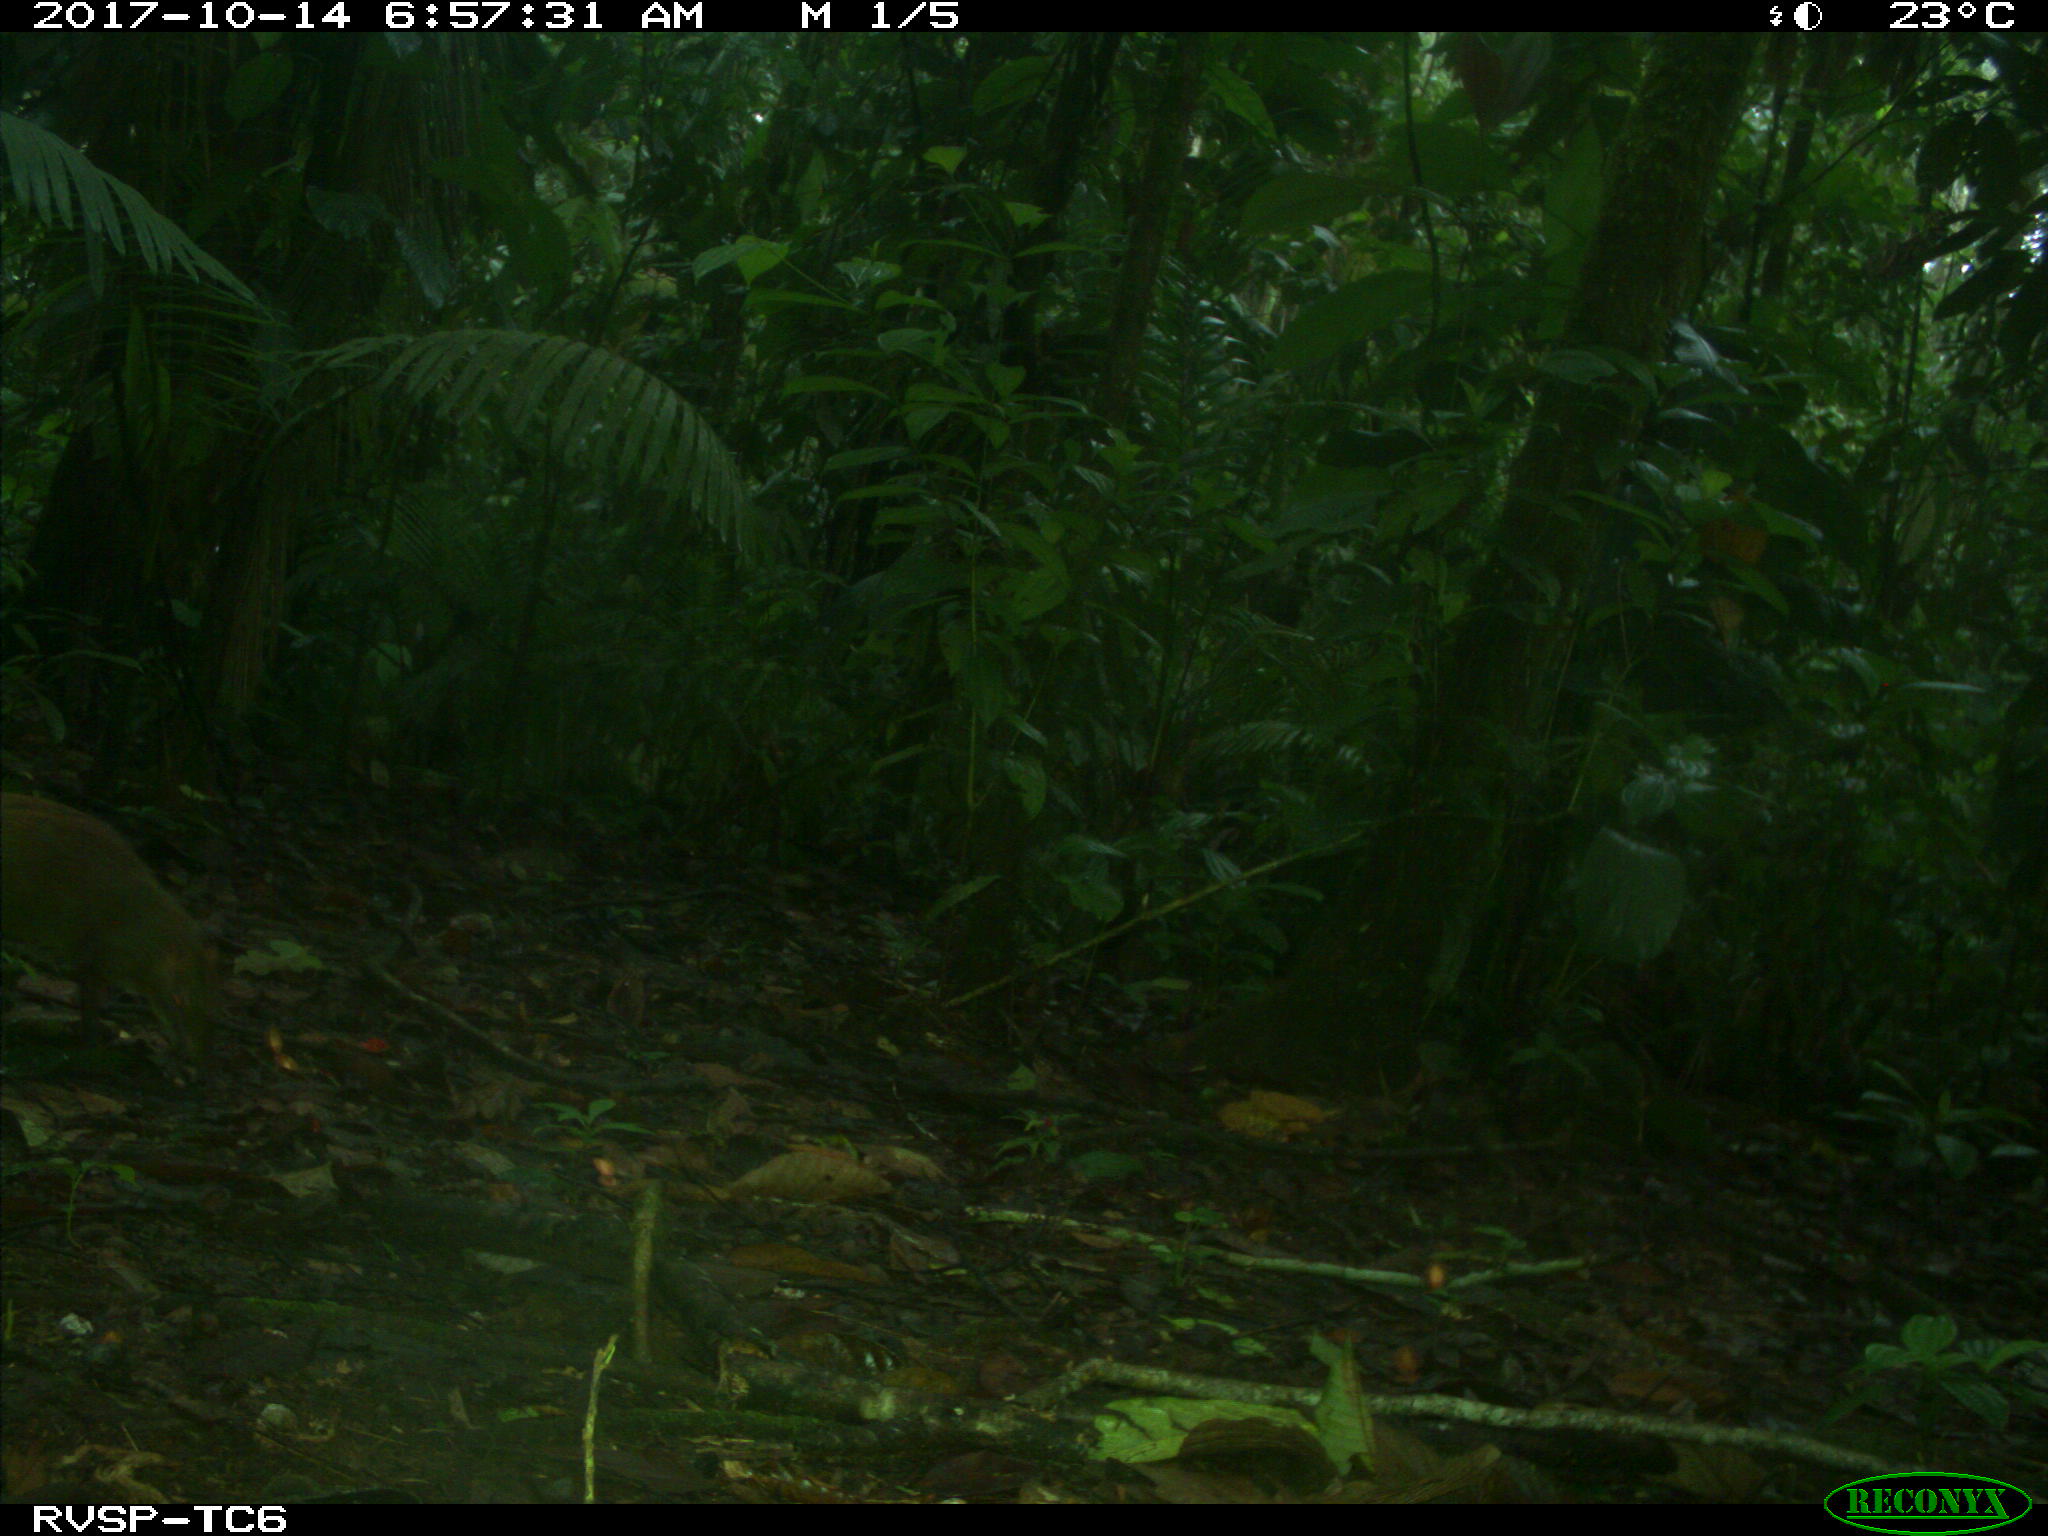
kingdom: Animalia
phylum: Chordata
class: Mammalia
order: Rodentia
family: Dasyproctidae
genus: Dasyprocta
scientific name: Dasyprocta punctata
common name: Central american agouti
